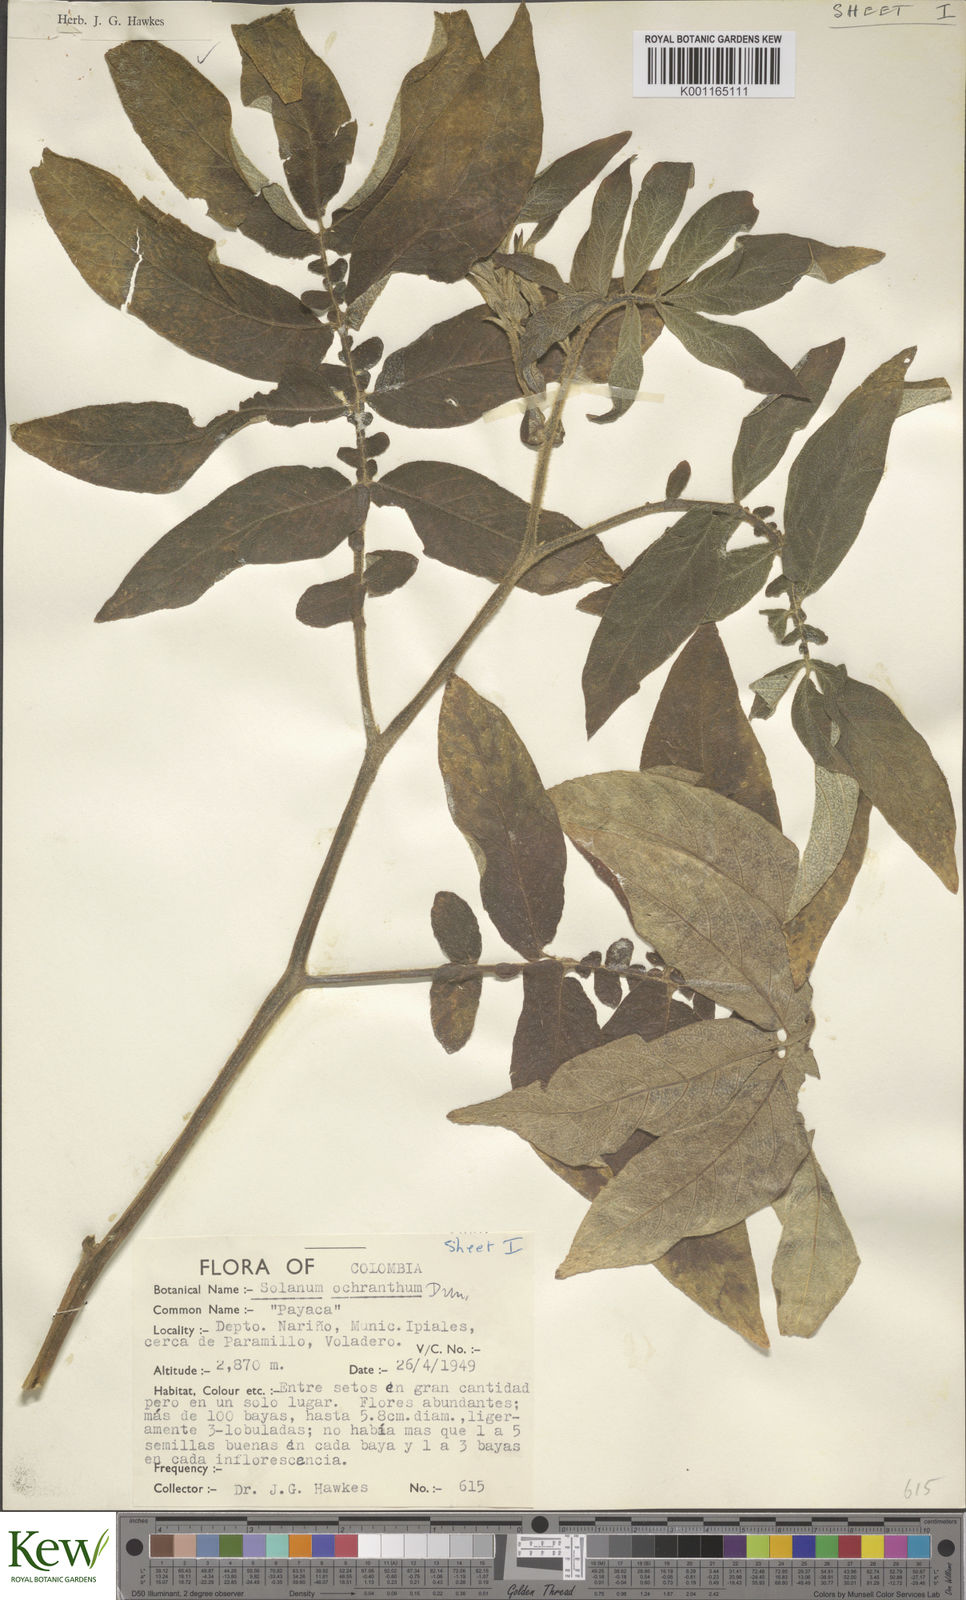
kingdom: Plantae
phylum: Tracheophyta
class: Magnoliopsida
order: Solanales
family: Solanaceae
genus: Solanum
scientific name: Solanum ochranthum
